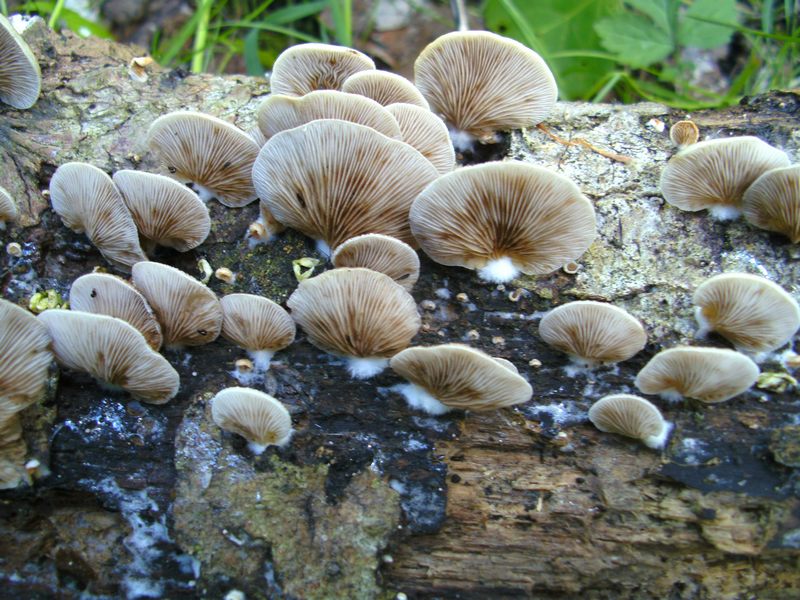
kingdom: Fungi
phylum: Basidiomycota
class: Agaricomycetes
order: Agaricales
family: Crepidotaceae
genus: Crepidotus
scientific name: Crepidotus mollis
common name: blød muslingesvamp
